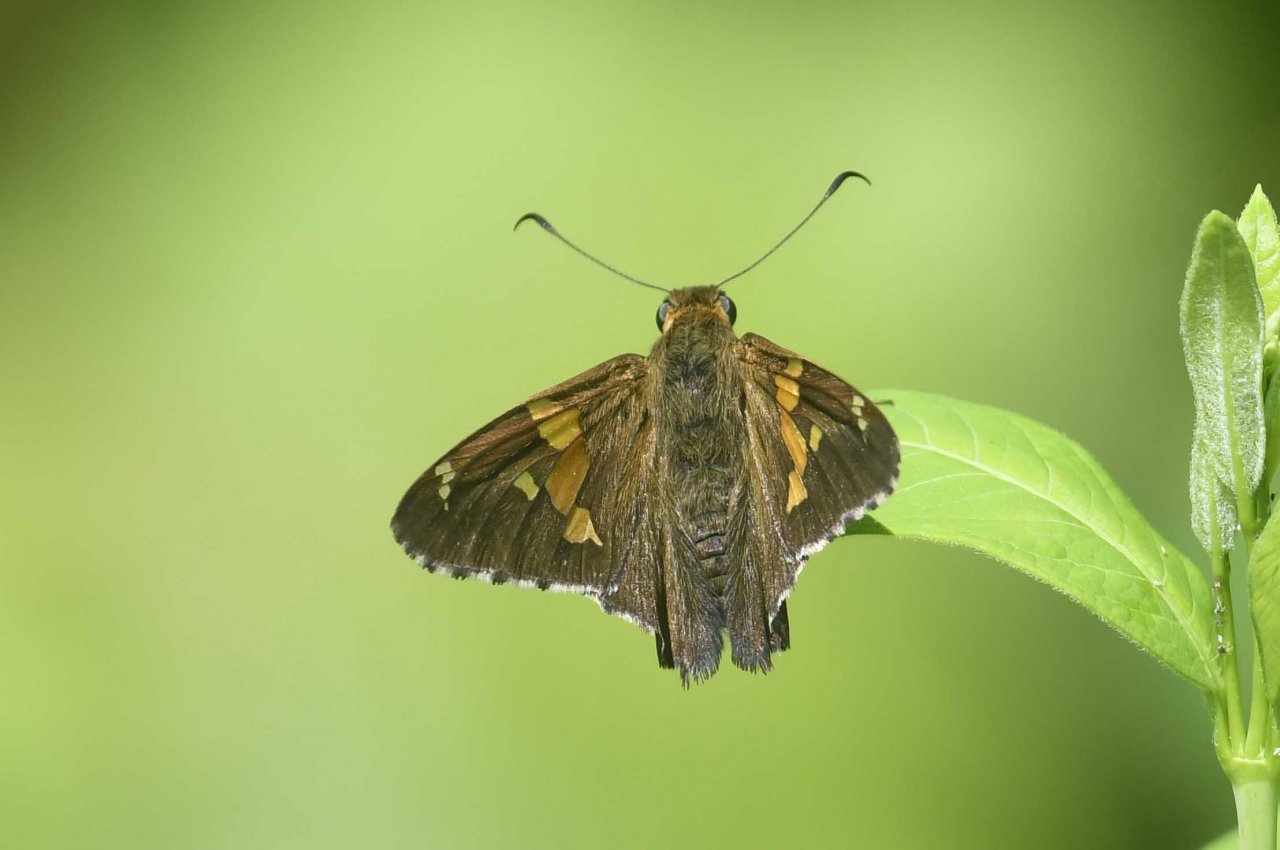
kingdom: Animalia
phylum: Arthropoda
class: Insecta
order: Lepidoptera
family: Hesperiidae
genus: Epargyreus
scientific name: Epargyreus clarus
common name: Silver-spotted Skipper
